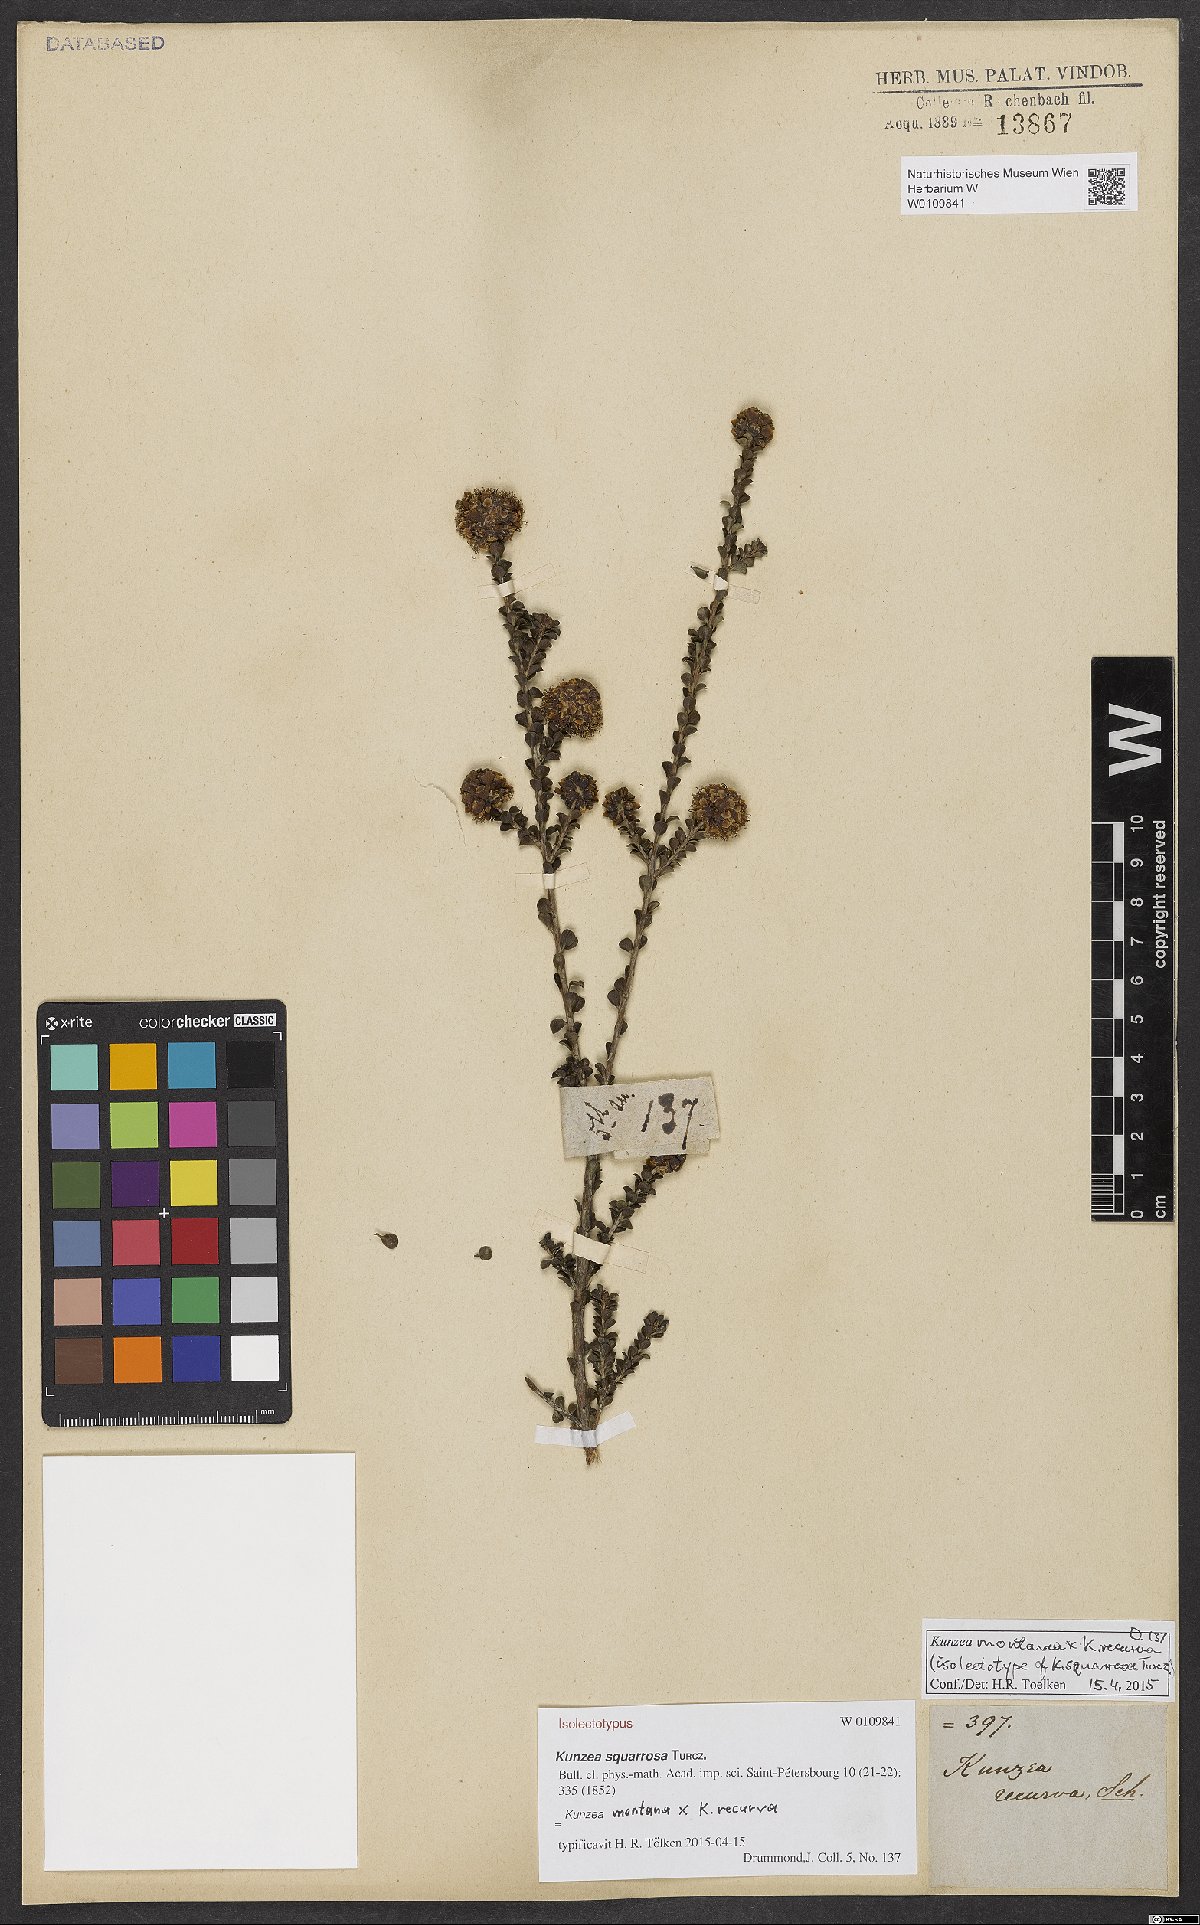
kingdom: Plantae
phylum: Tracheophyta
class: Magnoliopsida
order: Myrtales
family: Myrtaceae
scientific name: Myrtaceae
